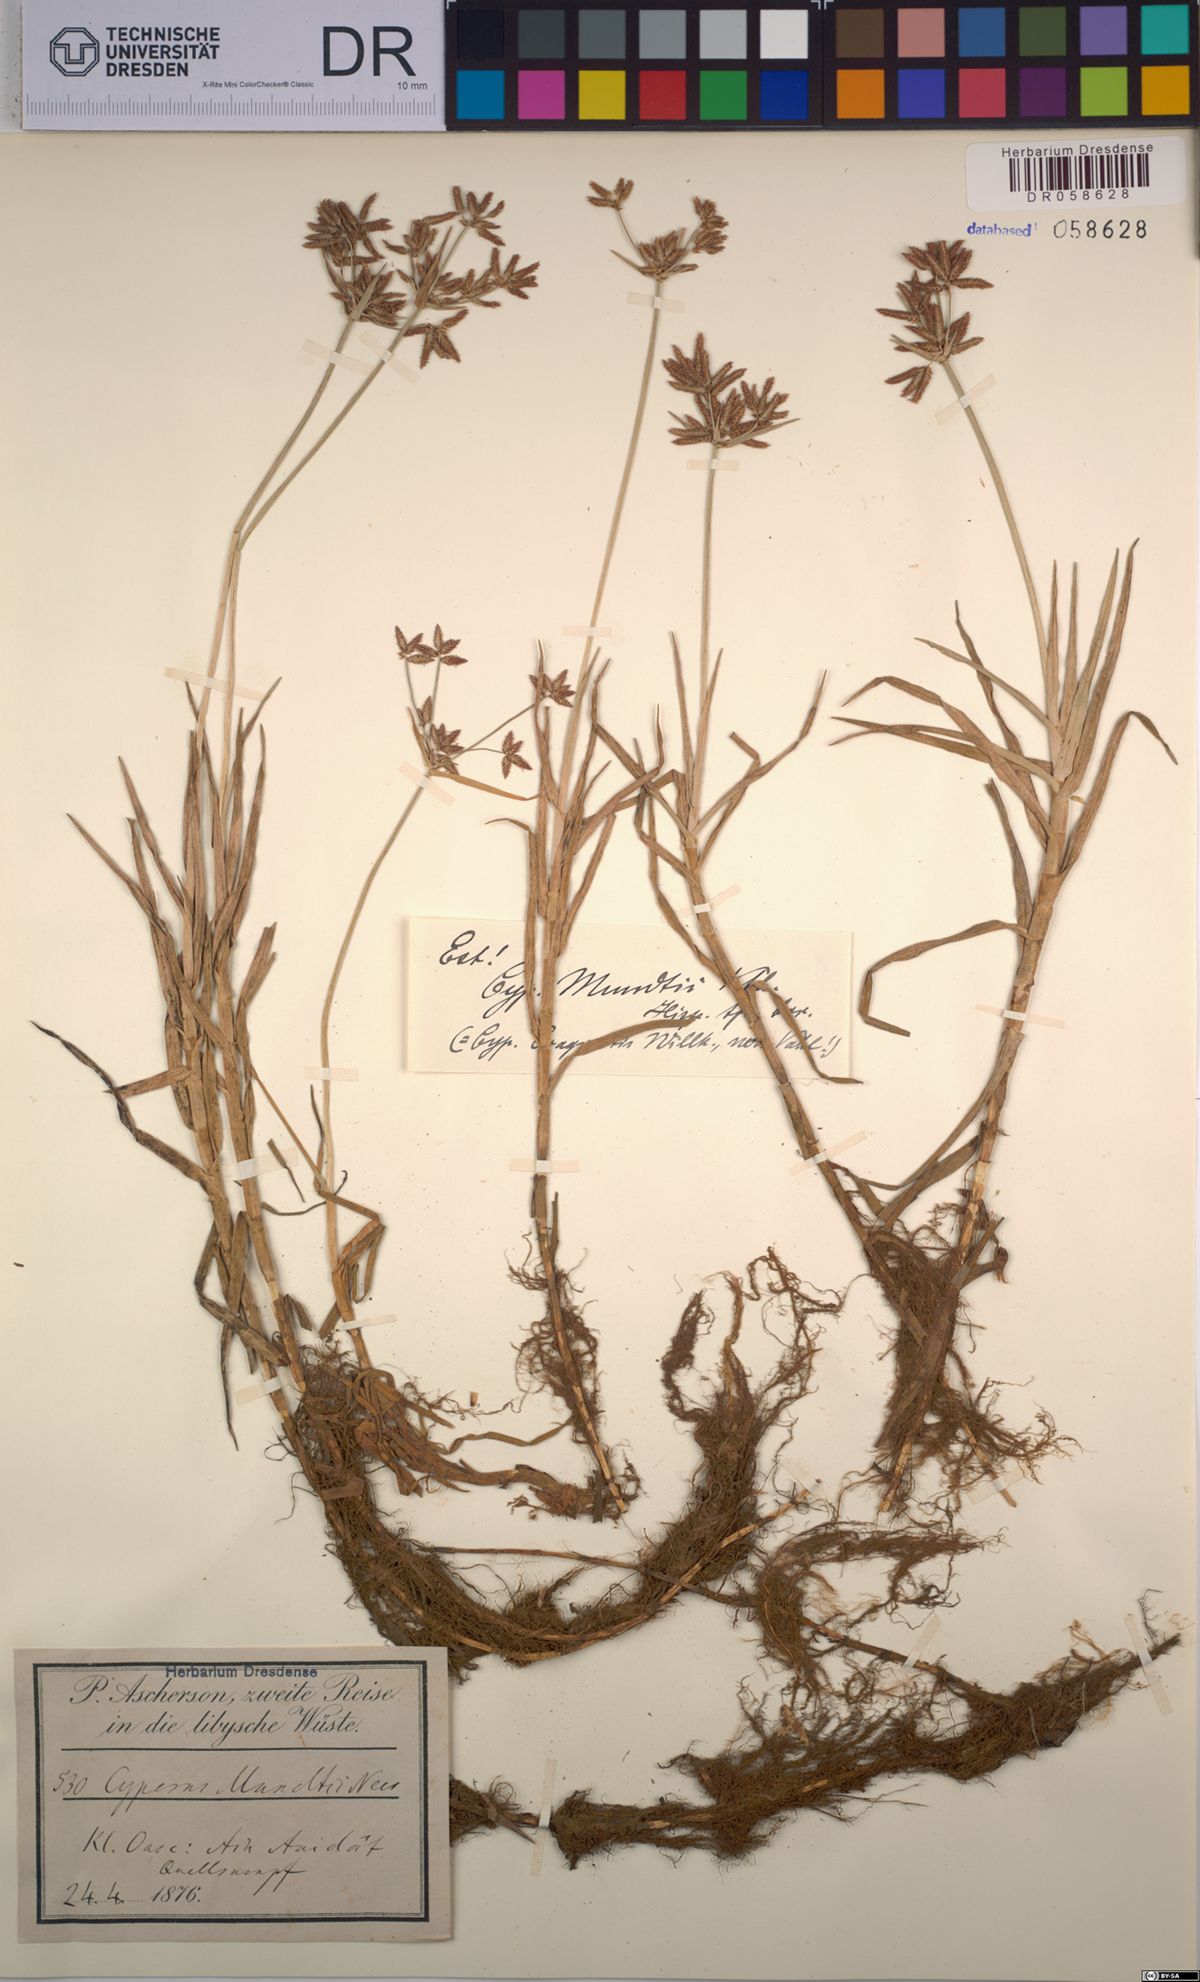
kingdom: Plantae
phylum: Tracheophyta
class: Liliopsida
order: Poales
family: Cyperaceae
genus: Cyperus
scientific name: Cyperus mundii
